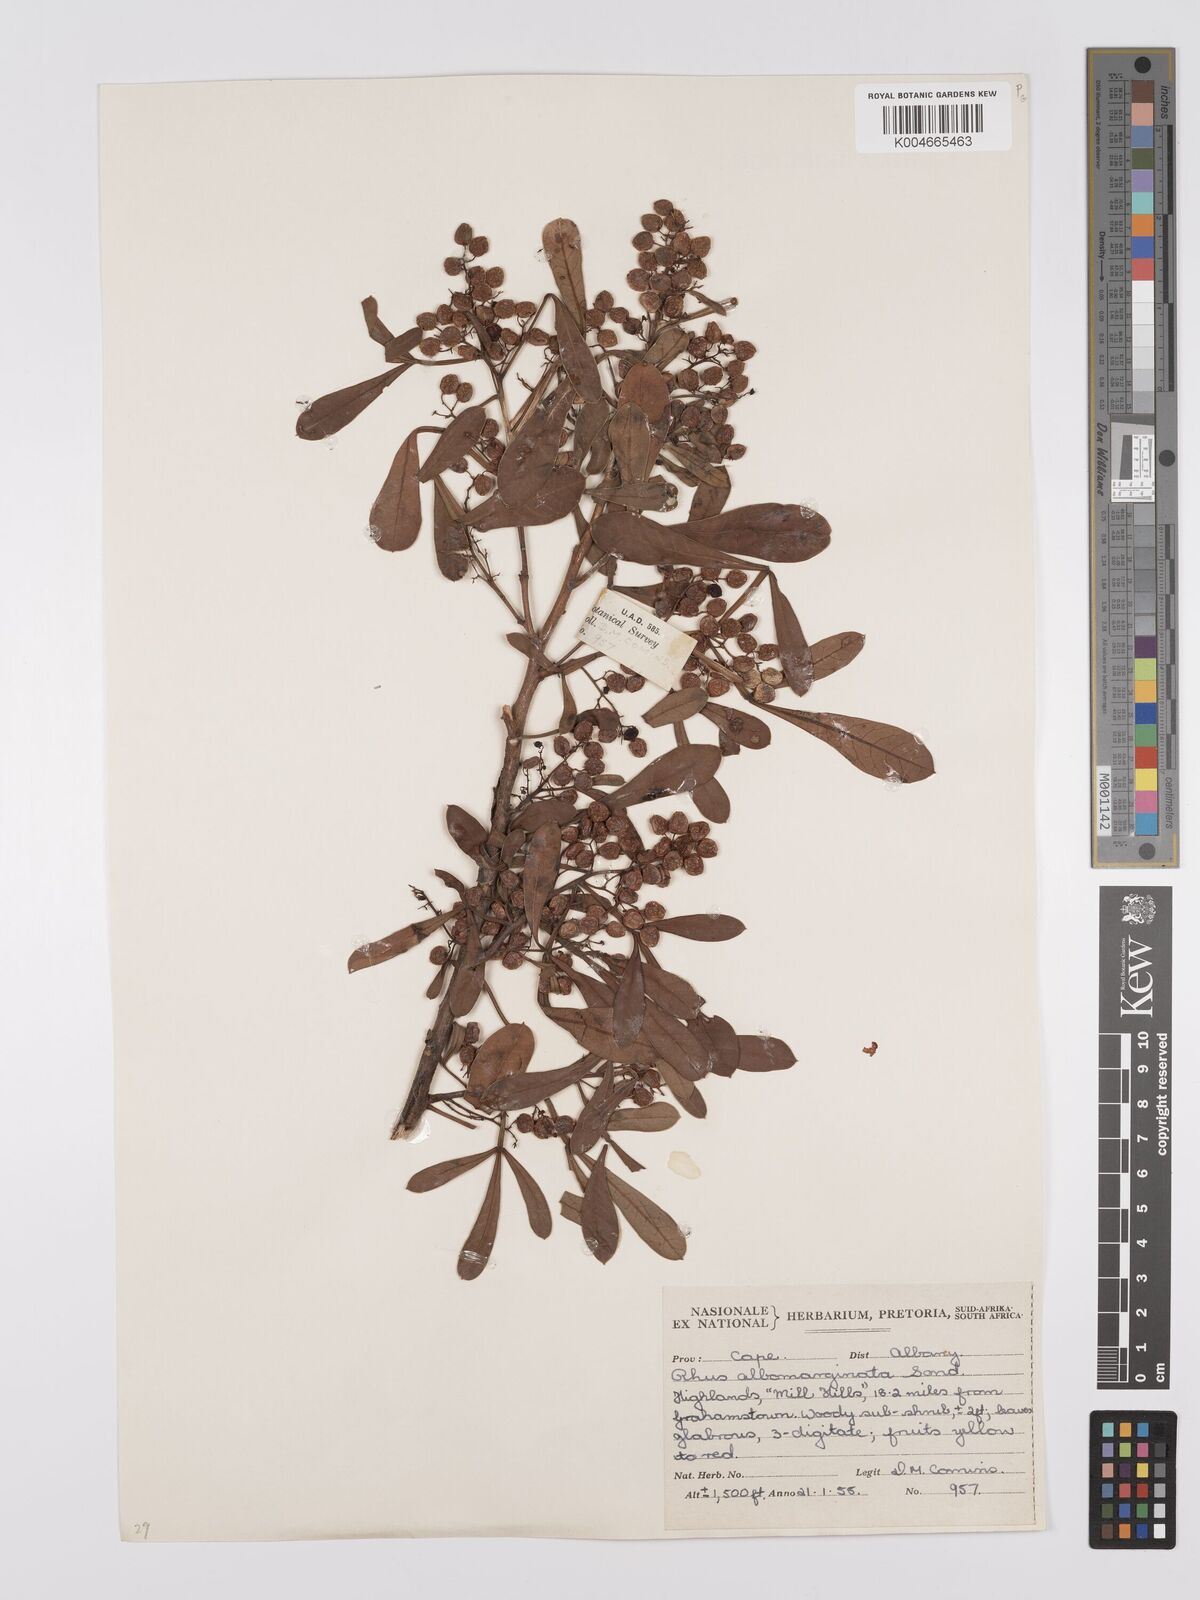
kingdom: Plantae
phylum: Tracheophyta
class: Magnoliopsida
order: Sapindales
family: Anacardiaceae
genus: Searsia
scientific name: Searsia albomarginata
